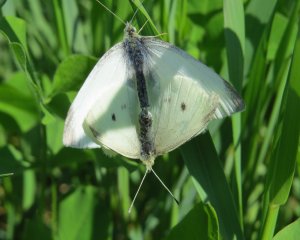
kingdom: Animalia
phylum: Arthropoda
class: Insecta
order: Lepidoptera
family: Pieridae
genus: Pieris
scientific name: Pieris rapae
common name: Cabbage White
